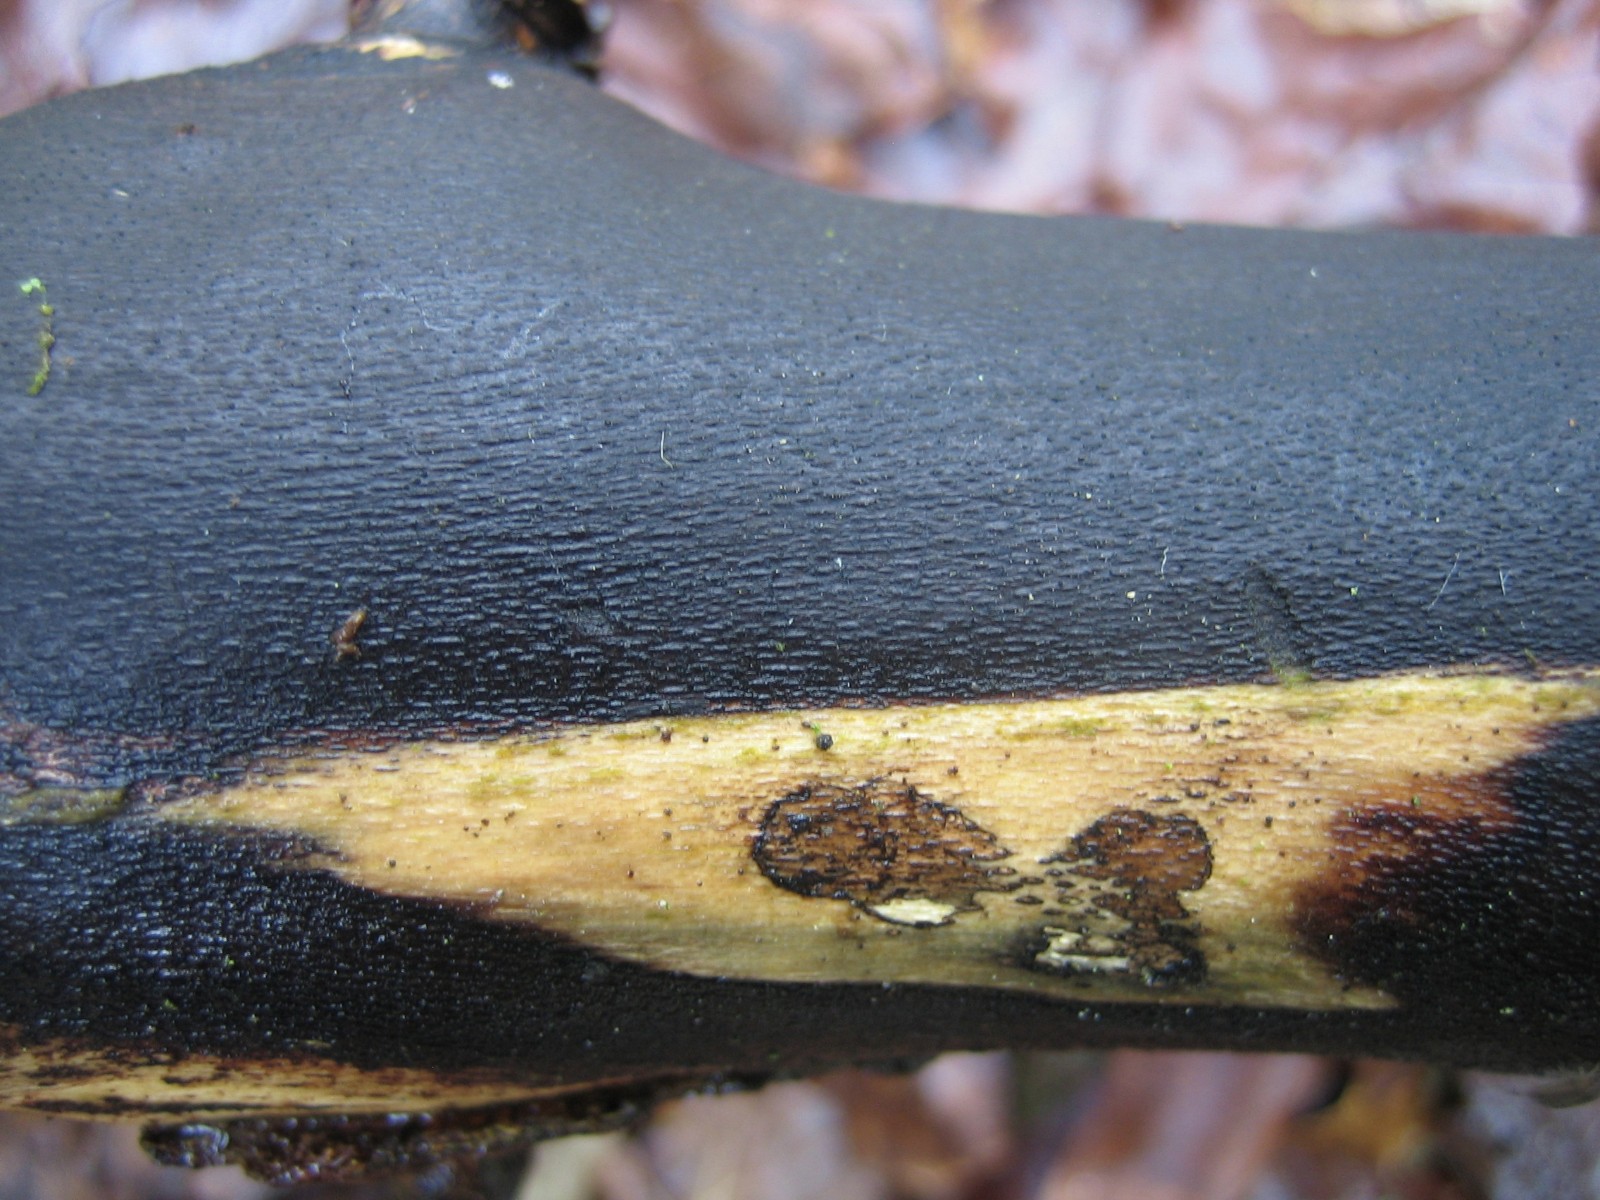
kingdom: Fungi
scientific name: Fungi
